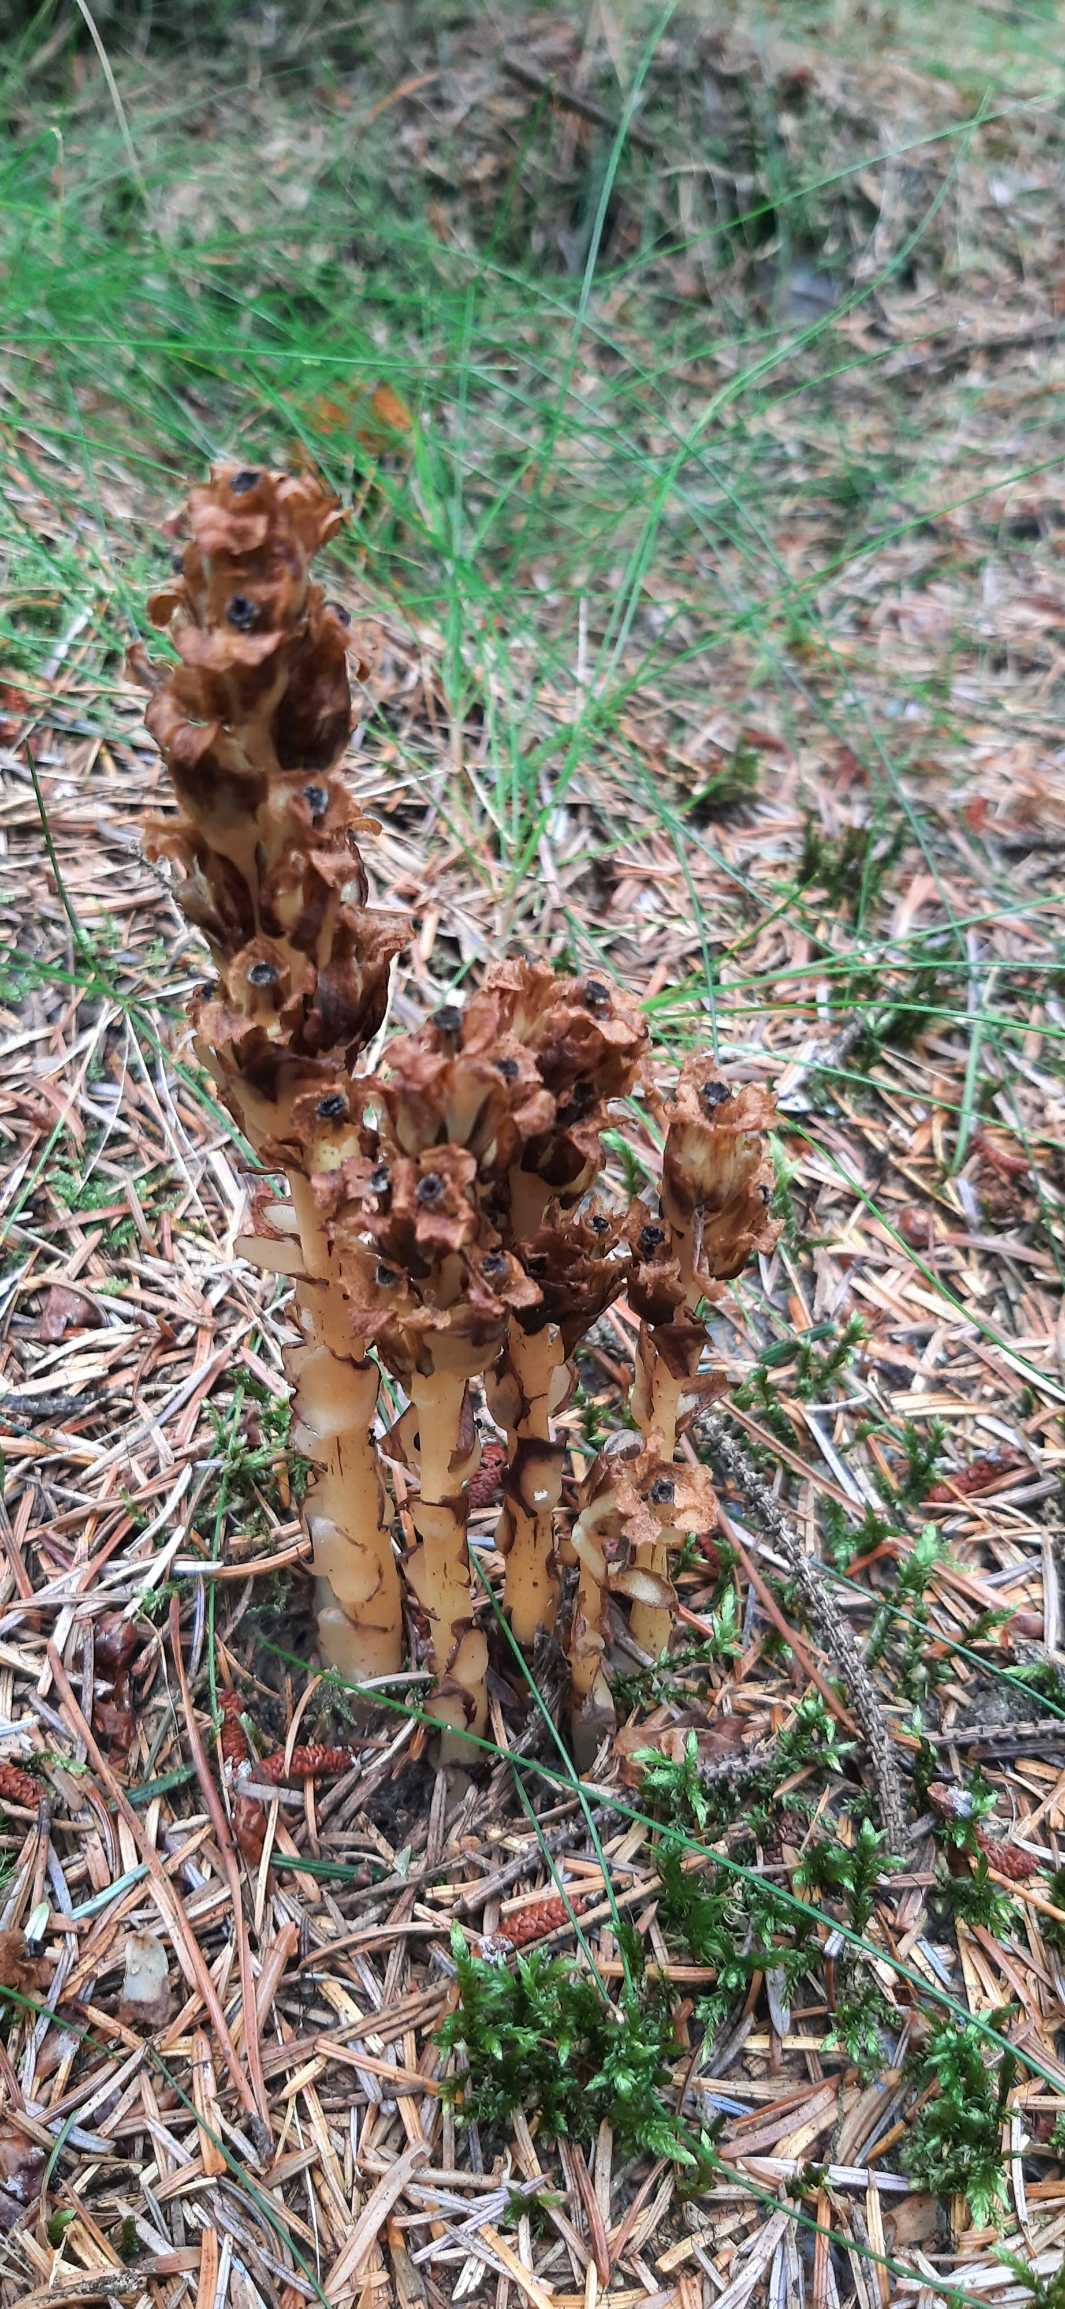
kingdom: Plantae
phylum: Tracheophyta
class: Magnoliopsida
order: Ericales
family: Ericaceae
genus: Hypopitys
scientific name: Hypopitys monotropa
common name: Snylterod
